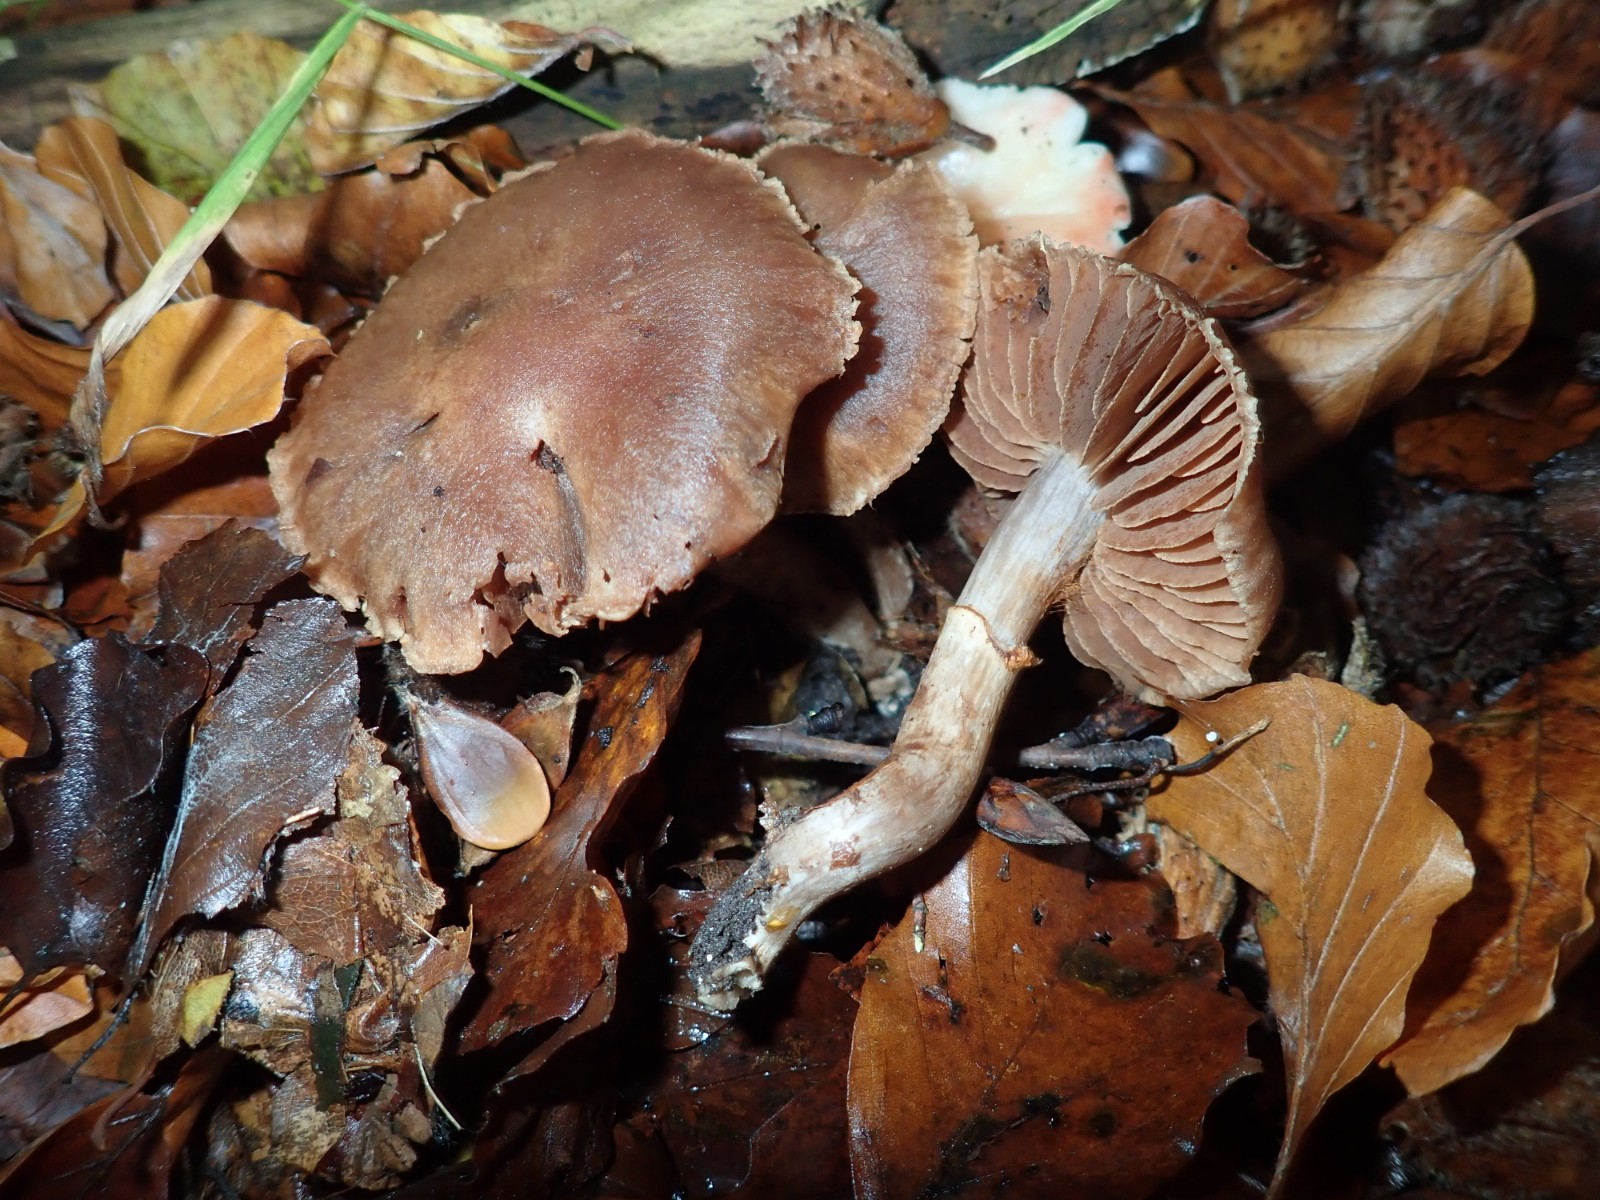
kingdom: Fungi
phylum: Basidiomycota
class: Agaricomycetes
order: Agaricales
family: Cortinariaceae
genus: Cortinarius
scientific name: Cortinarius torvus
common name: champignonagtig slørhat
